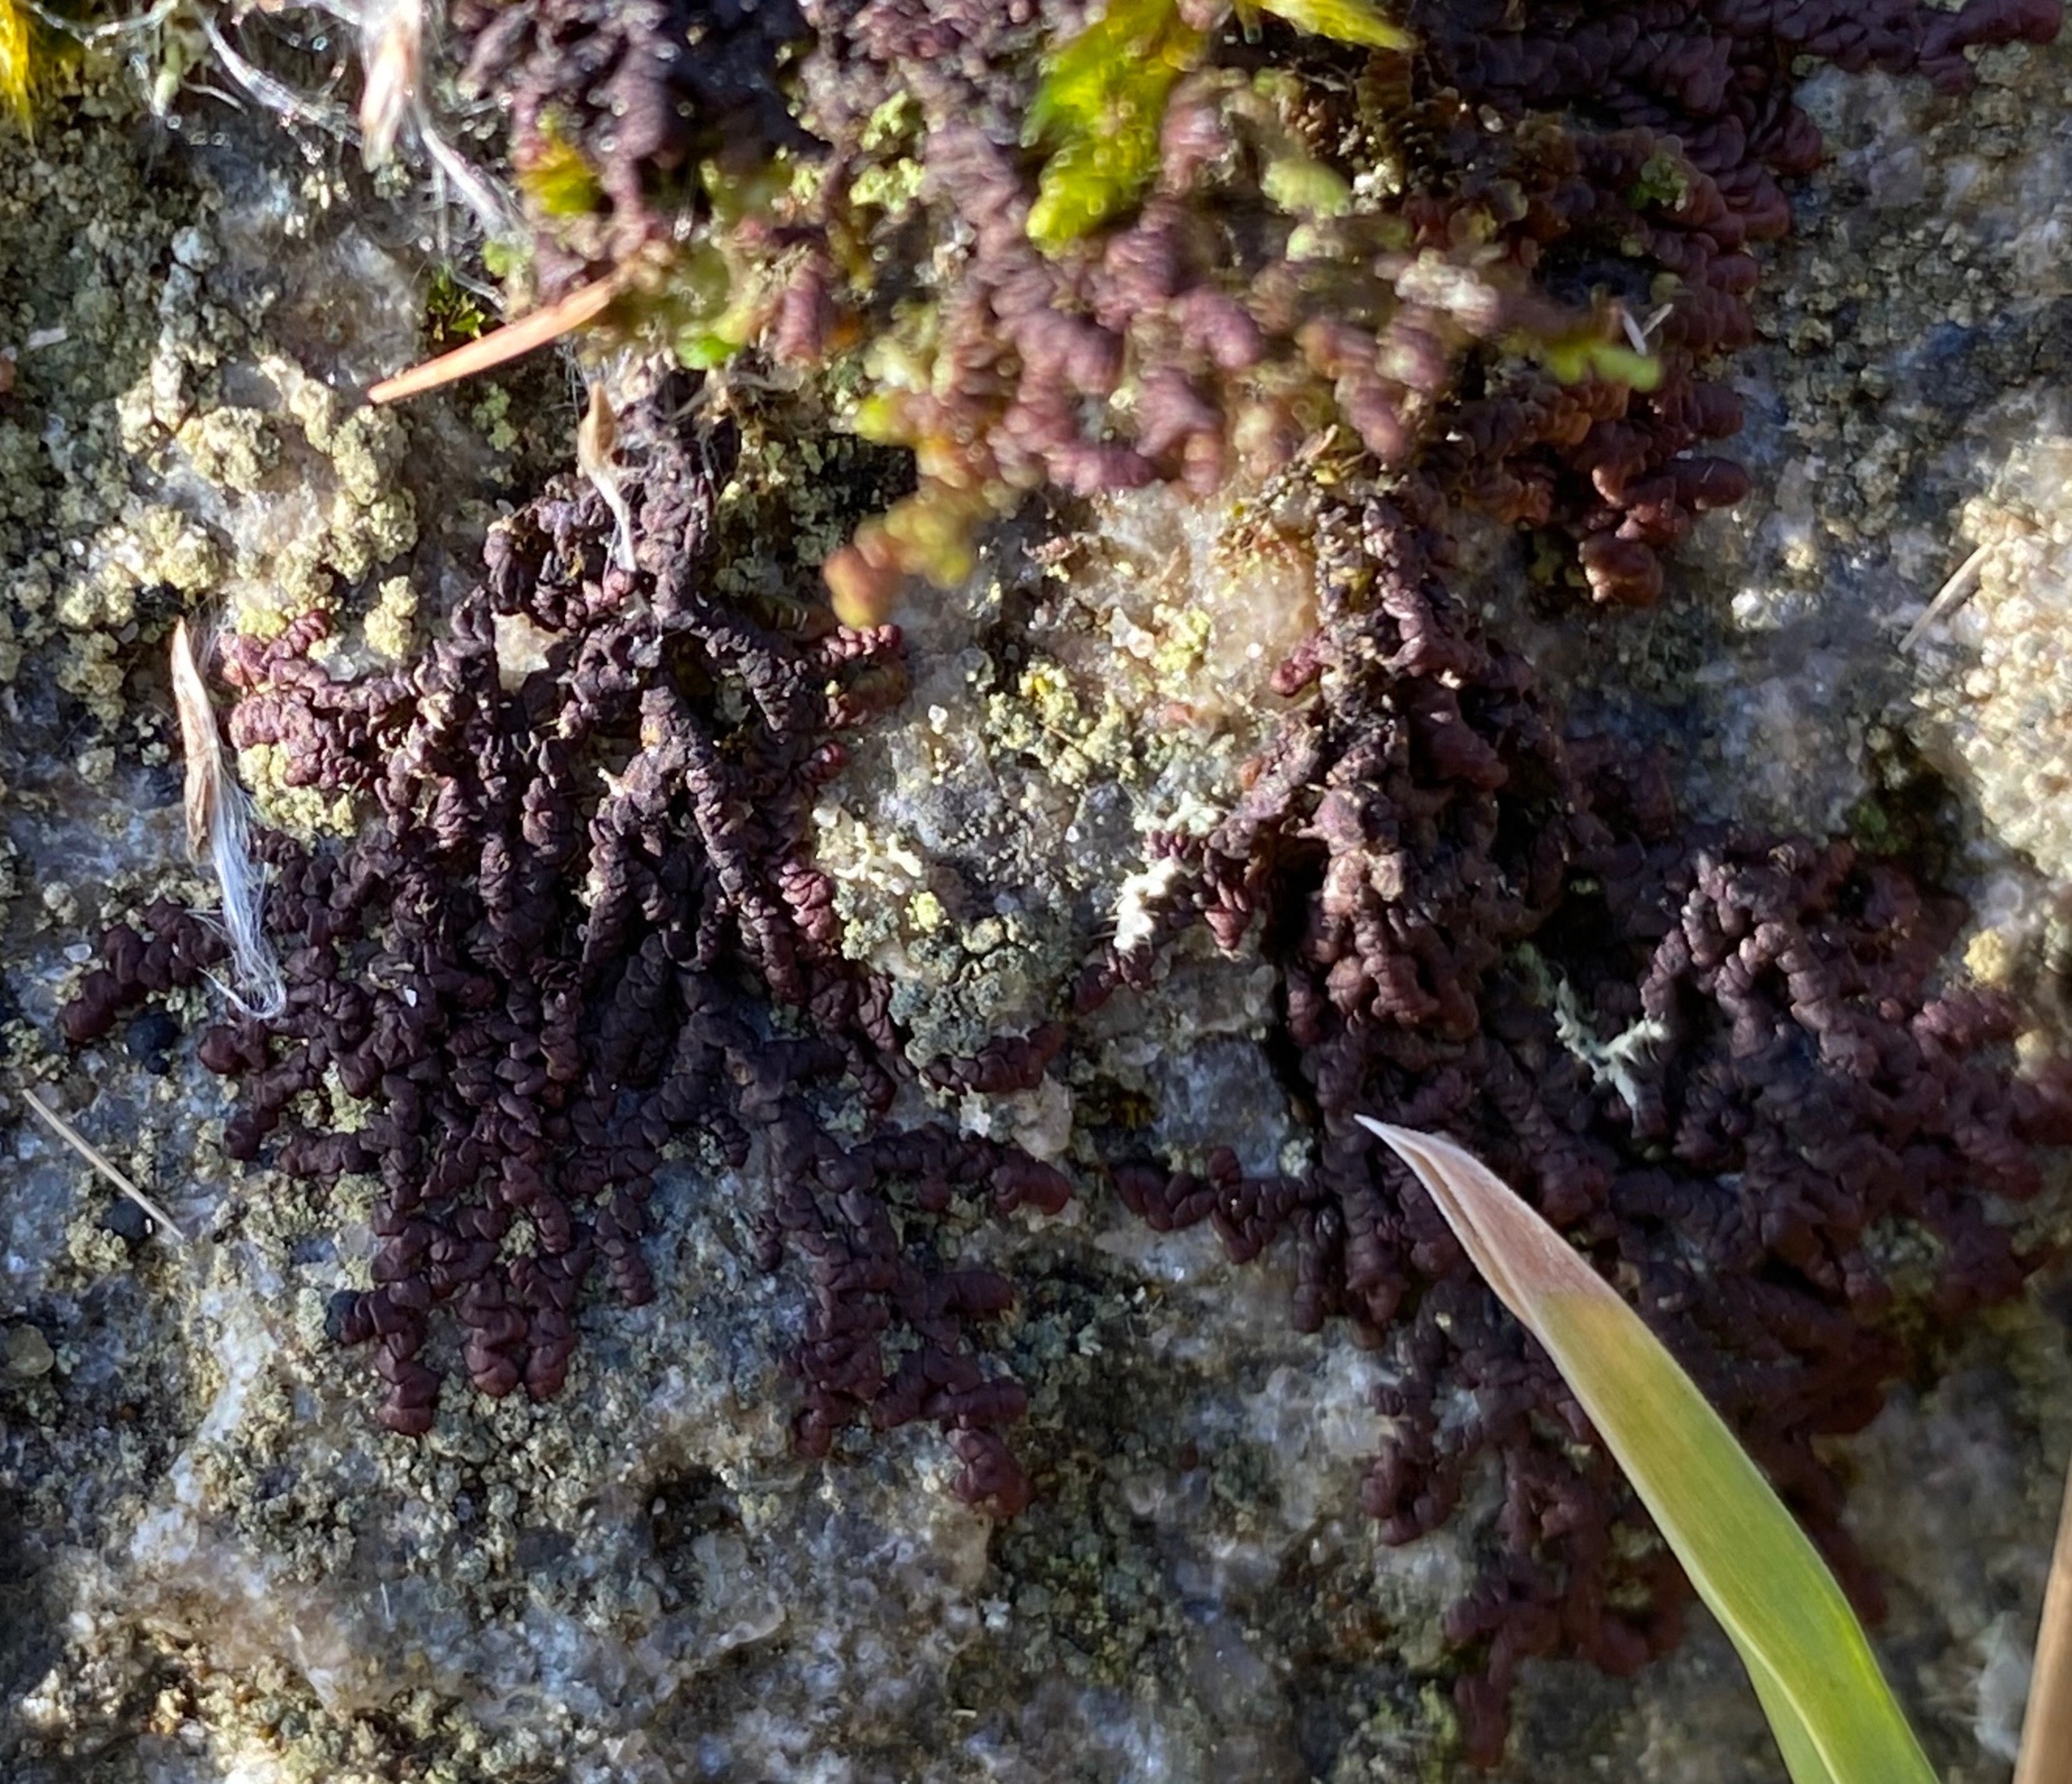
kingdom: Plantae
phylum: Marchantiophyta
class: Jungermanniopsida
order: Porellales
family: Frullaniaceae
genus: Frullania
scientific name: Frullania dilatata
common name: Mat bronzemos
